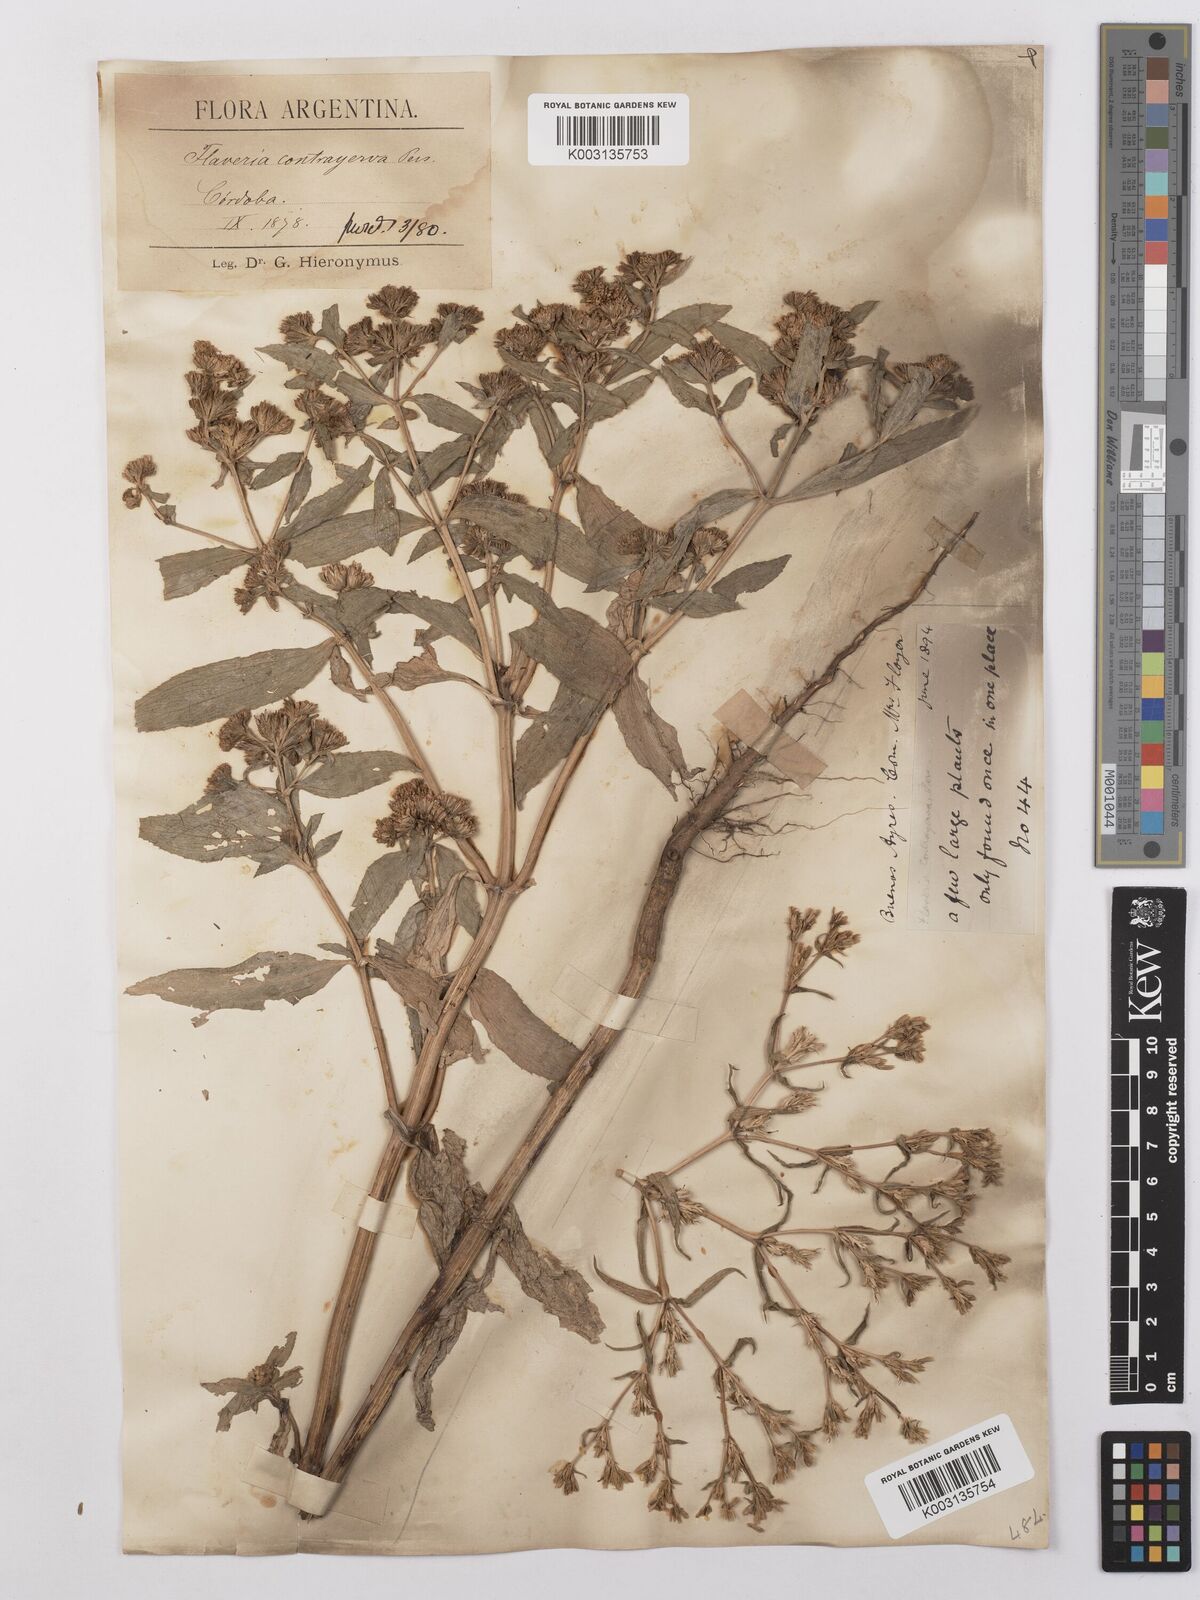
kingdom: Plantae
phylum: Tracheophyta
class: Magnoliopsida
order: Asterales
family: Asteraceae
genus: Flaveria
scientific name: Flaveria bidentis
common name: Coastal plain yellowtops
